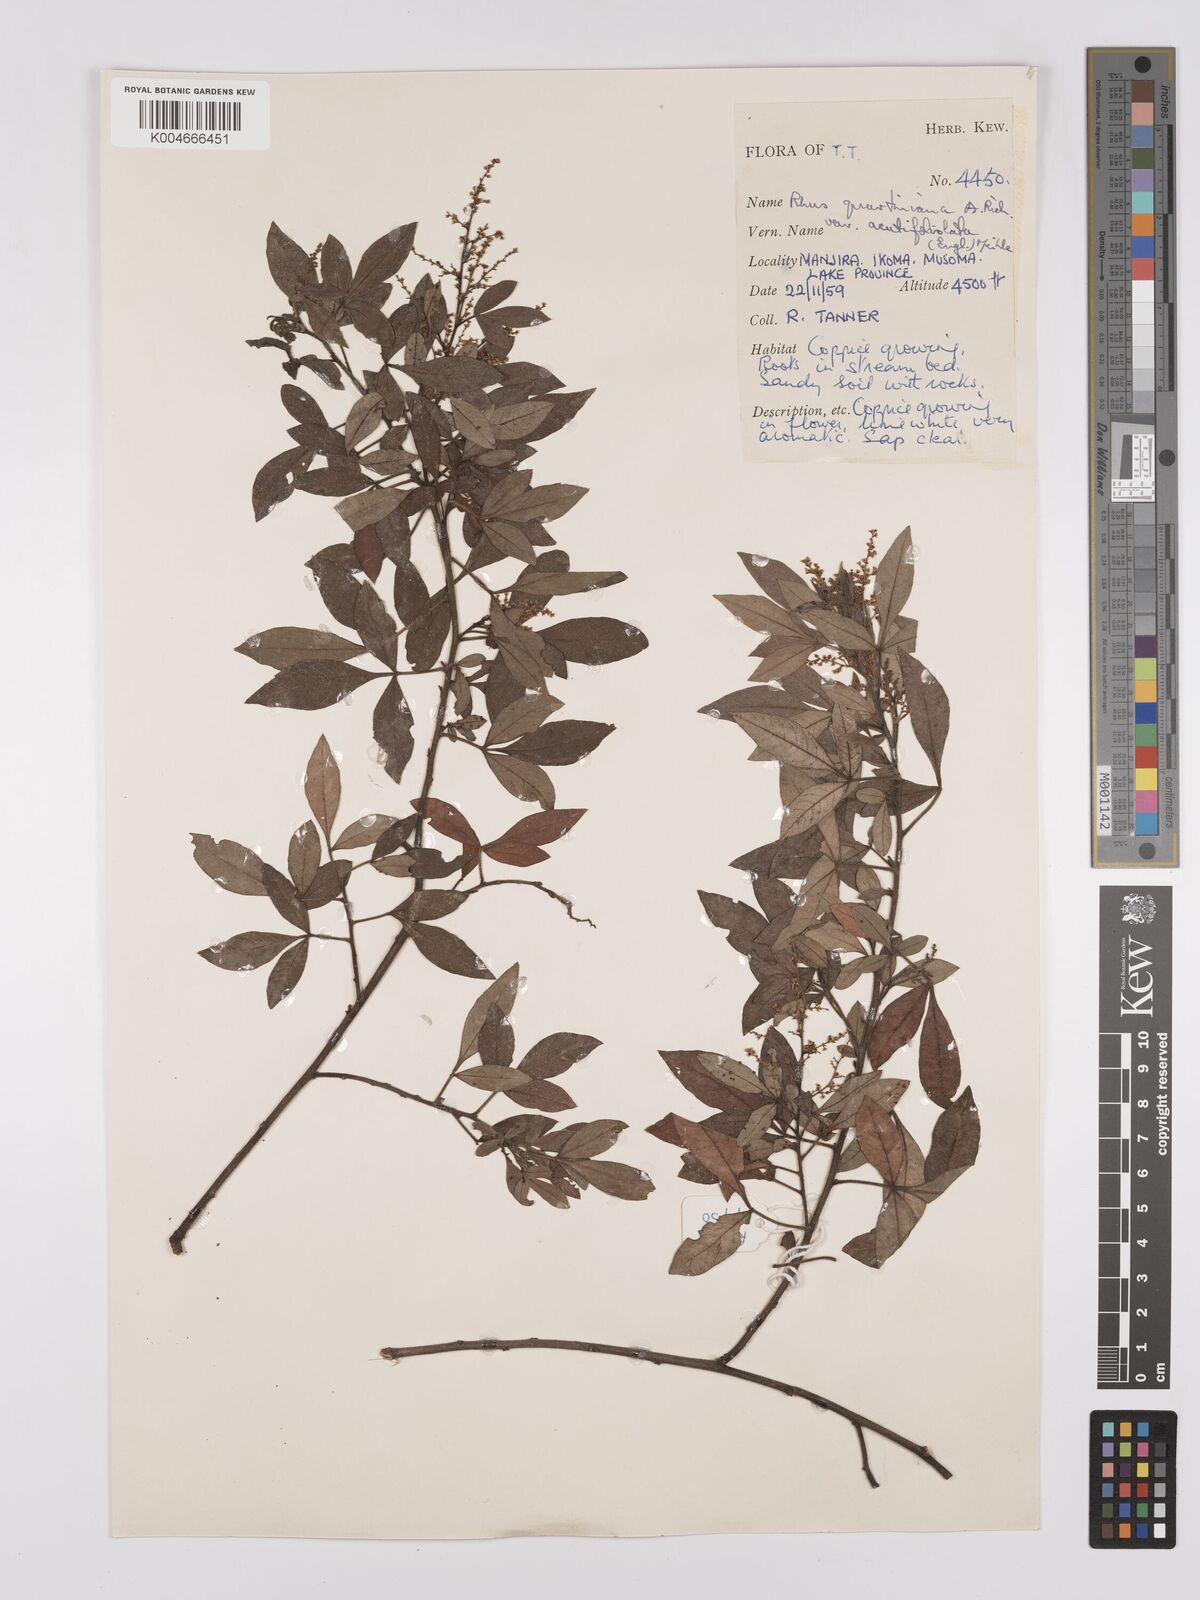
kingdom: Plantae
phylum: Tracheophyta
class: Magnoliopsida
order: Sapindales
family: Anacardiaceae
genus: Searsia
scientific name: Searsia quartiniana
